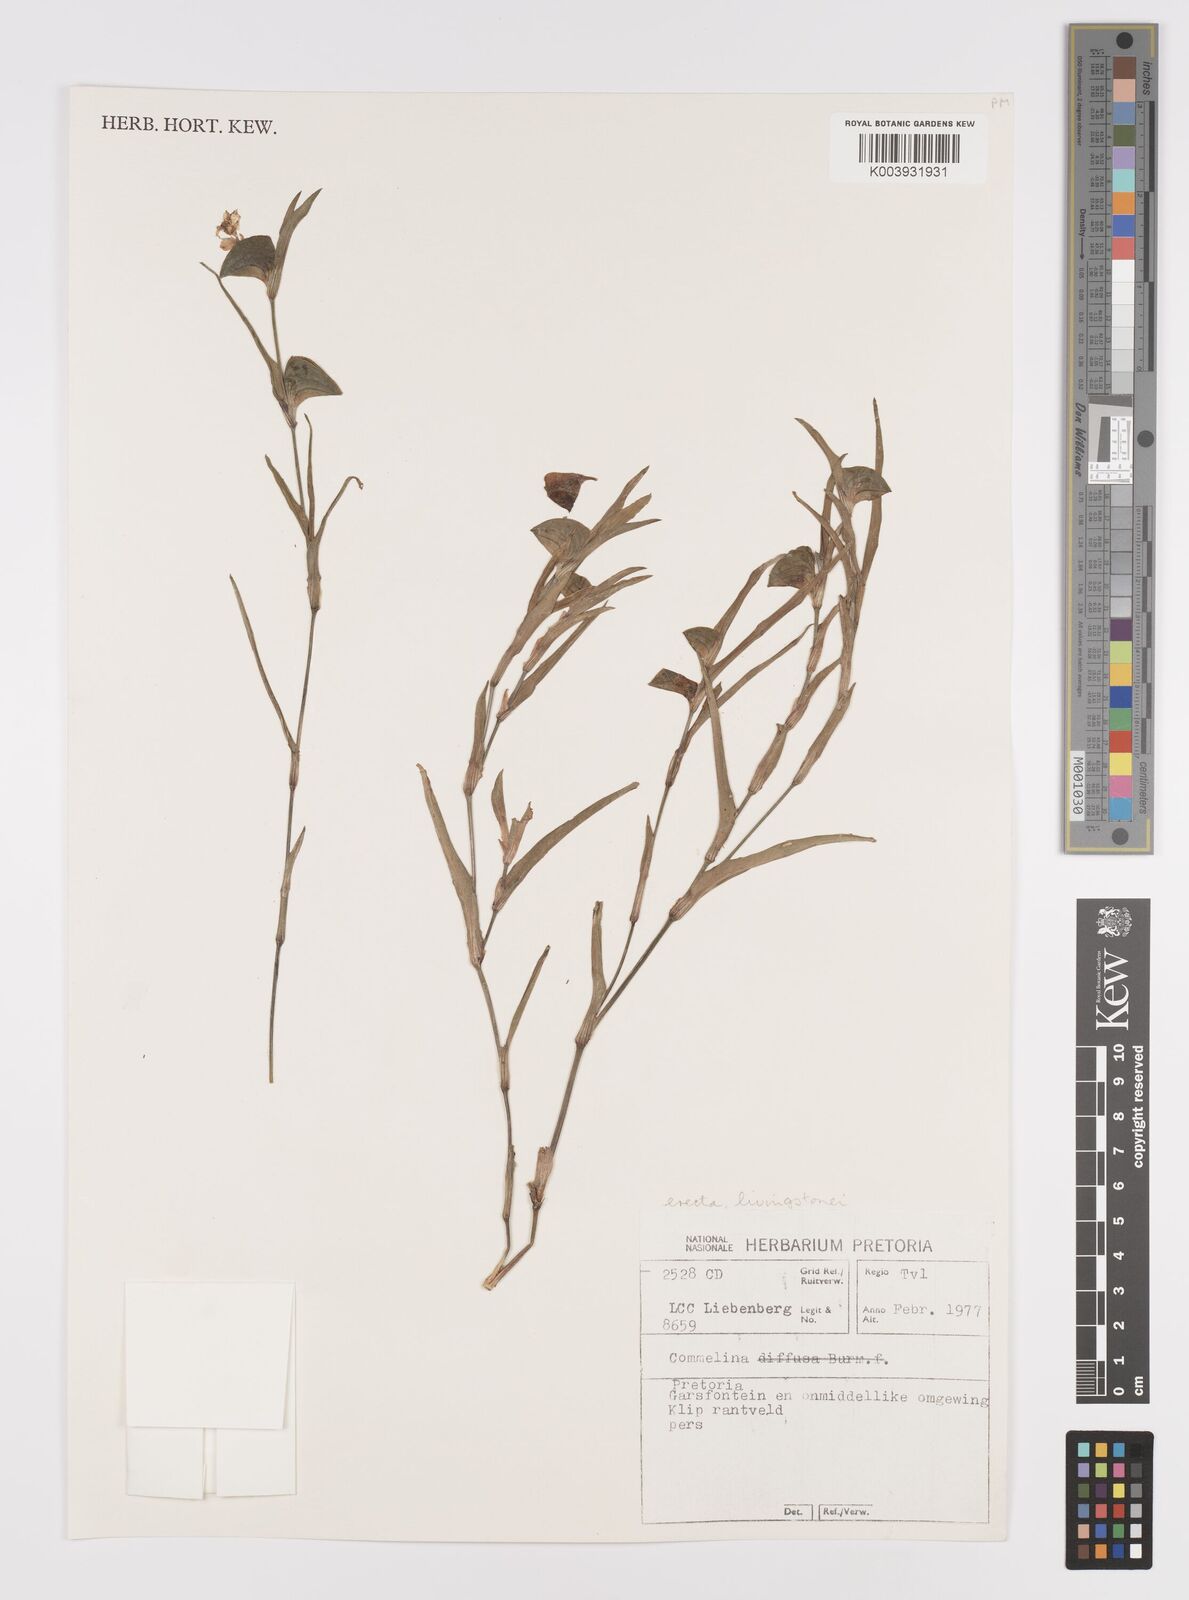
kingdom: Plantae
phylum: Tracheophyta
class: Liliopsida
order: Commelinales
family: Commelinaceae
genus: Commelina
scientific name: Commelina erecta
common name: Blousel blommetjie
